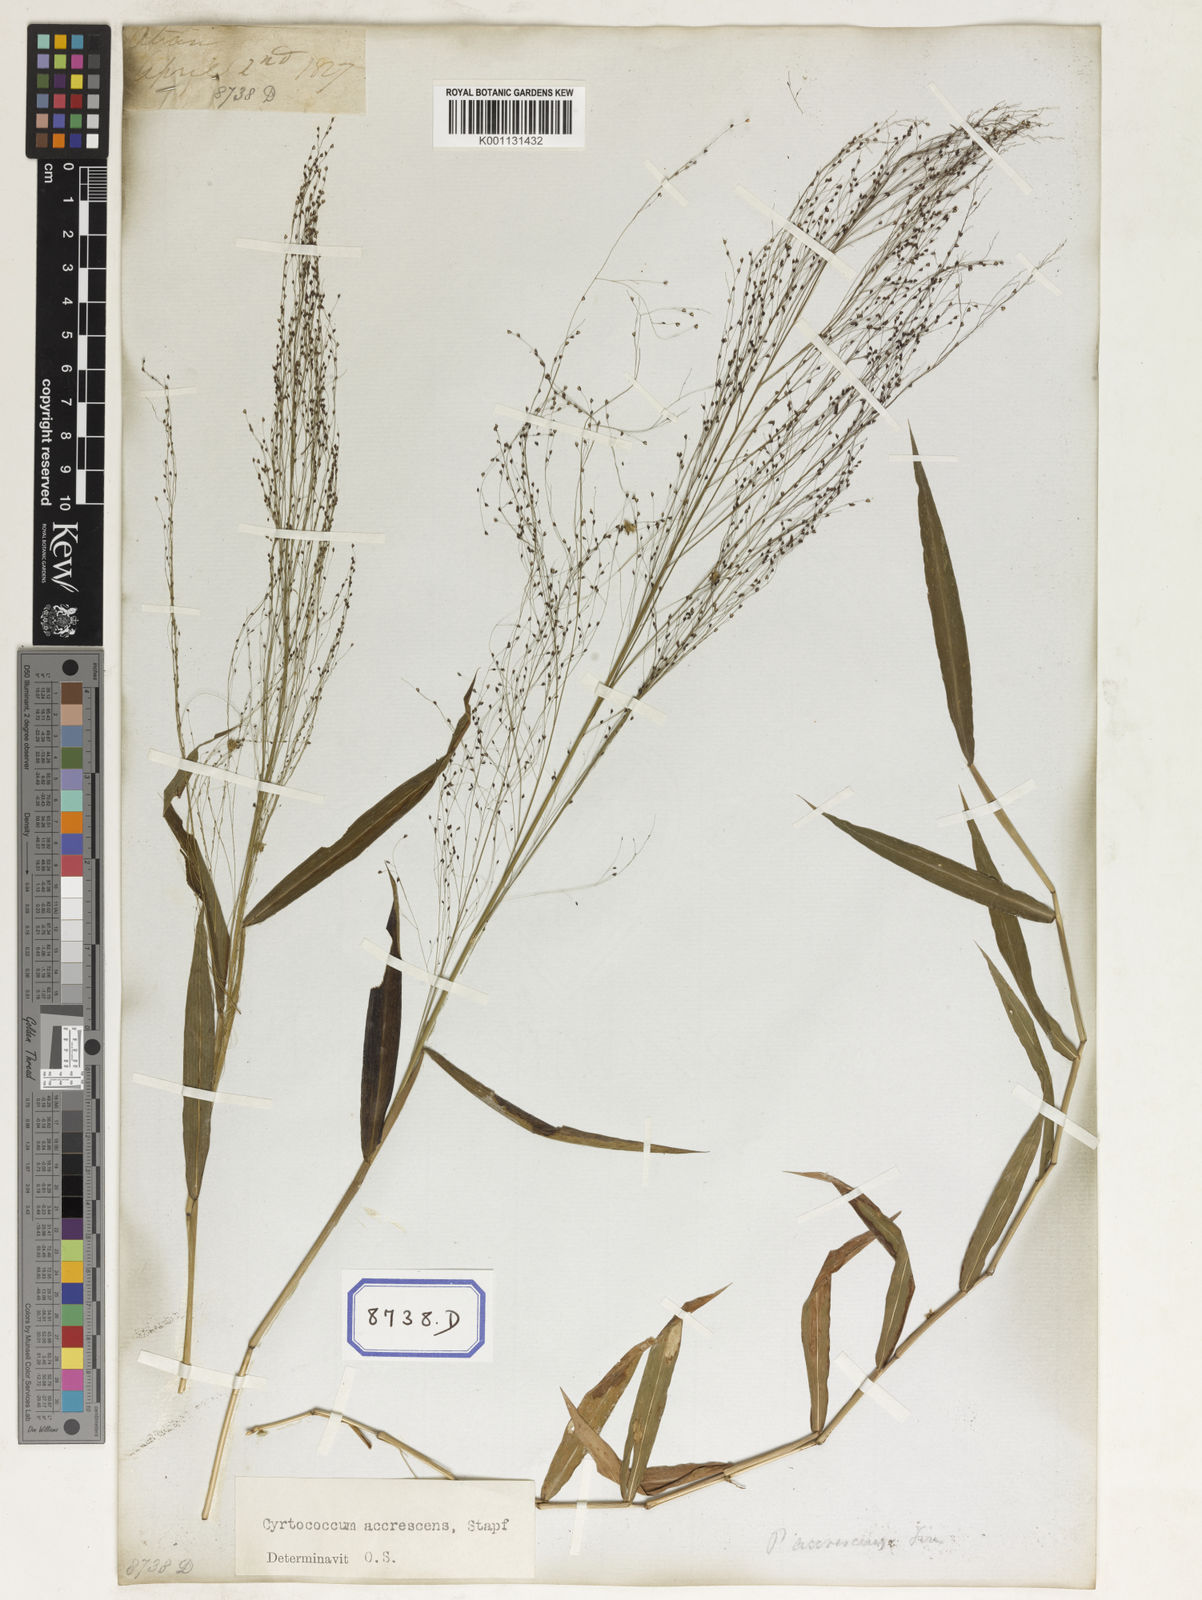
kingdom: Plantae
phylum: Tracheophyta
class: Liliopsida
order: Poales
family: Poaceae
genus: Panicum
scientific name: Panicum
